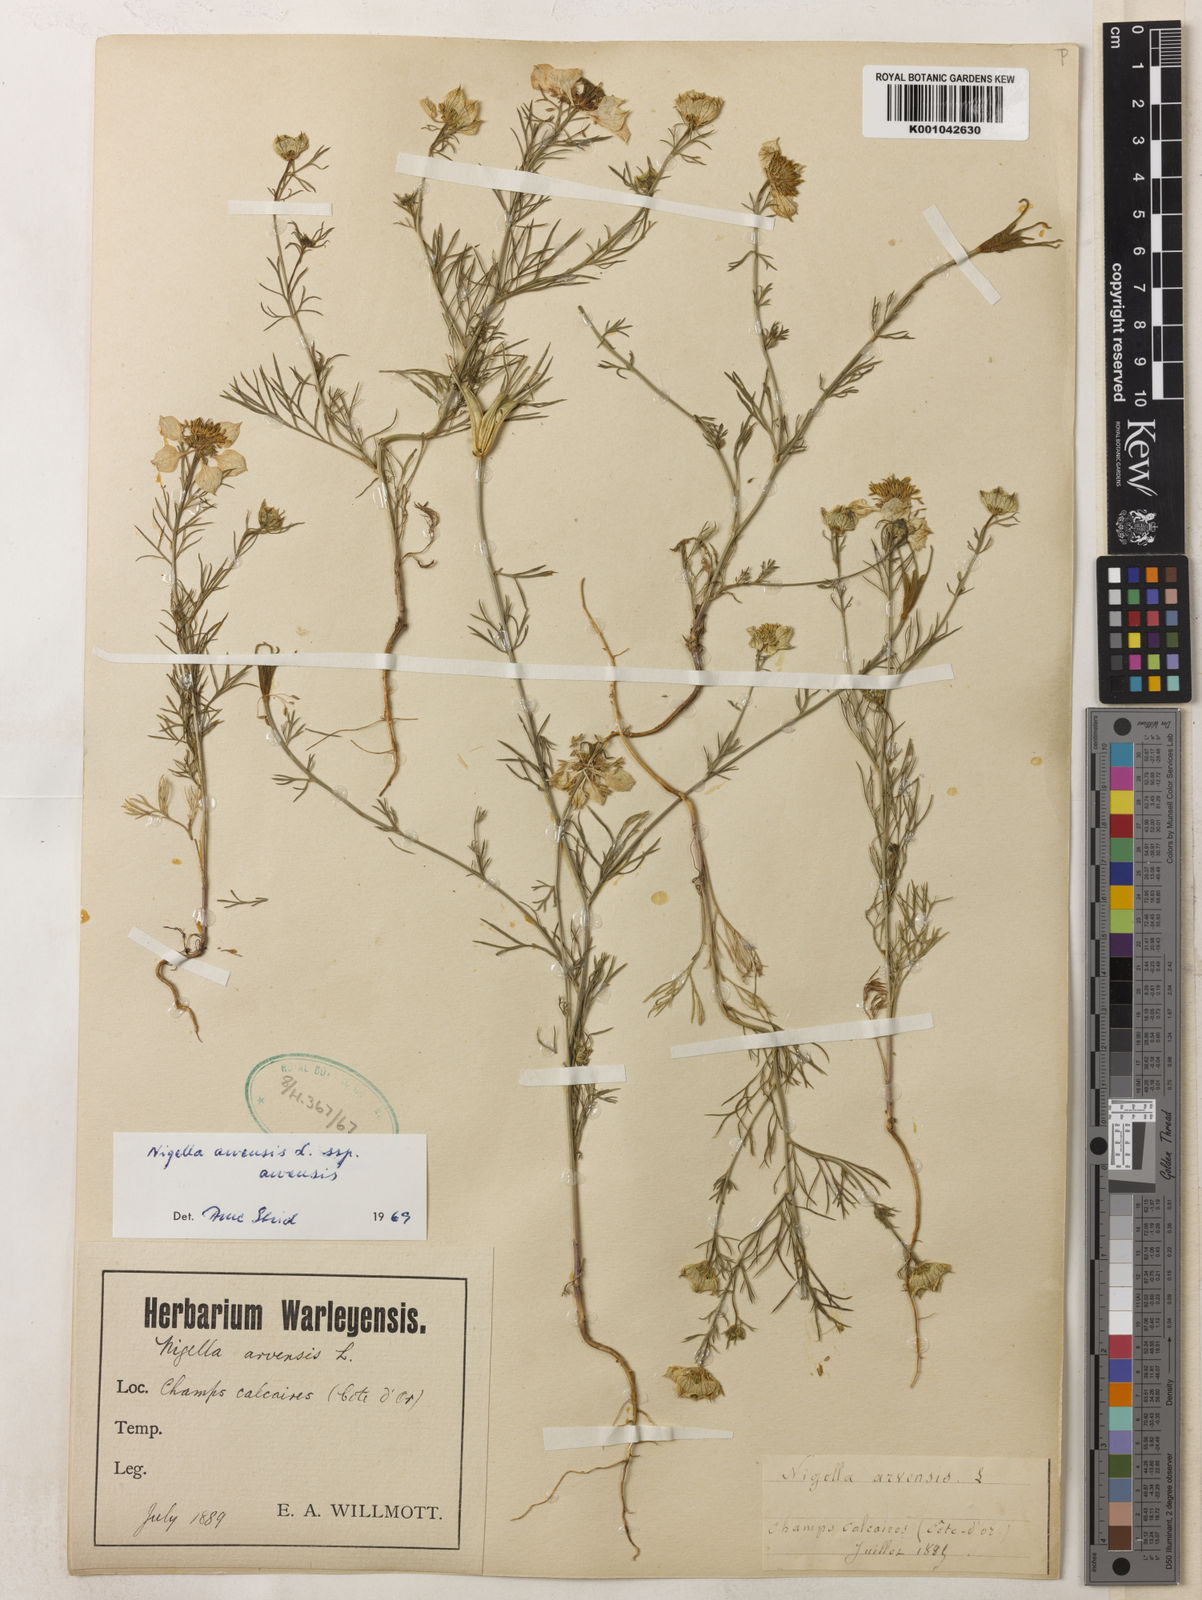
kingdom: Plantae
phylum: Tracheophyta
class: Magnoliopsida
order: Ranunculales
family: Ranunculaceae
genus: Nigella
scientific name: Nigella arvensis
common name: Wild fennel-flower
